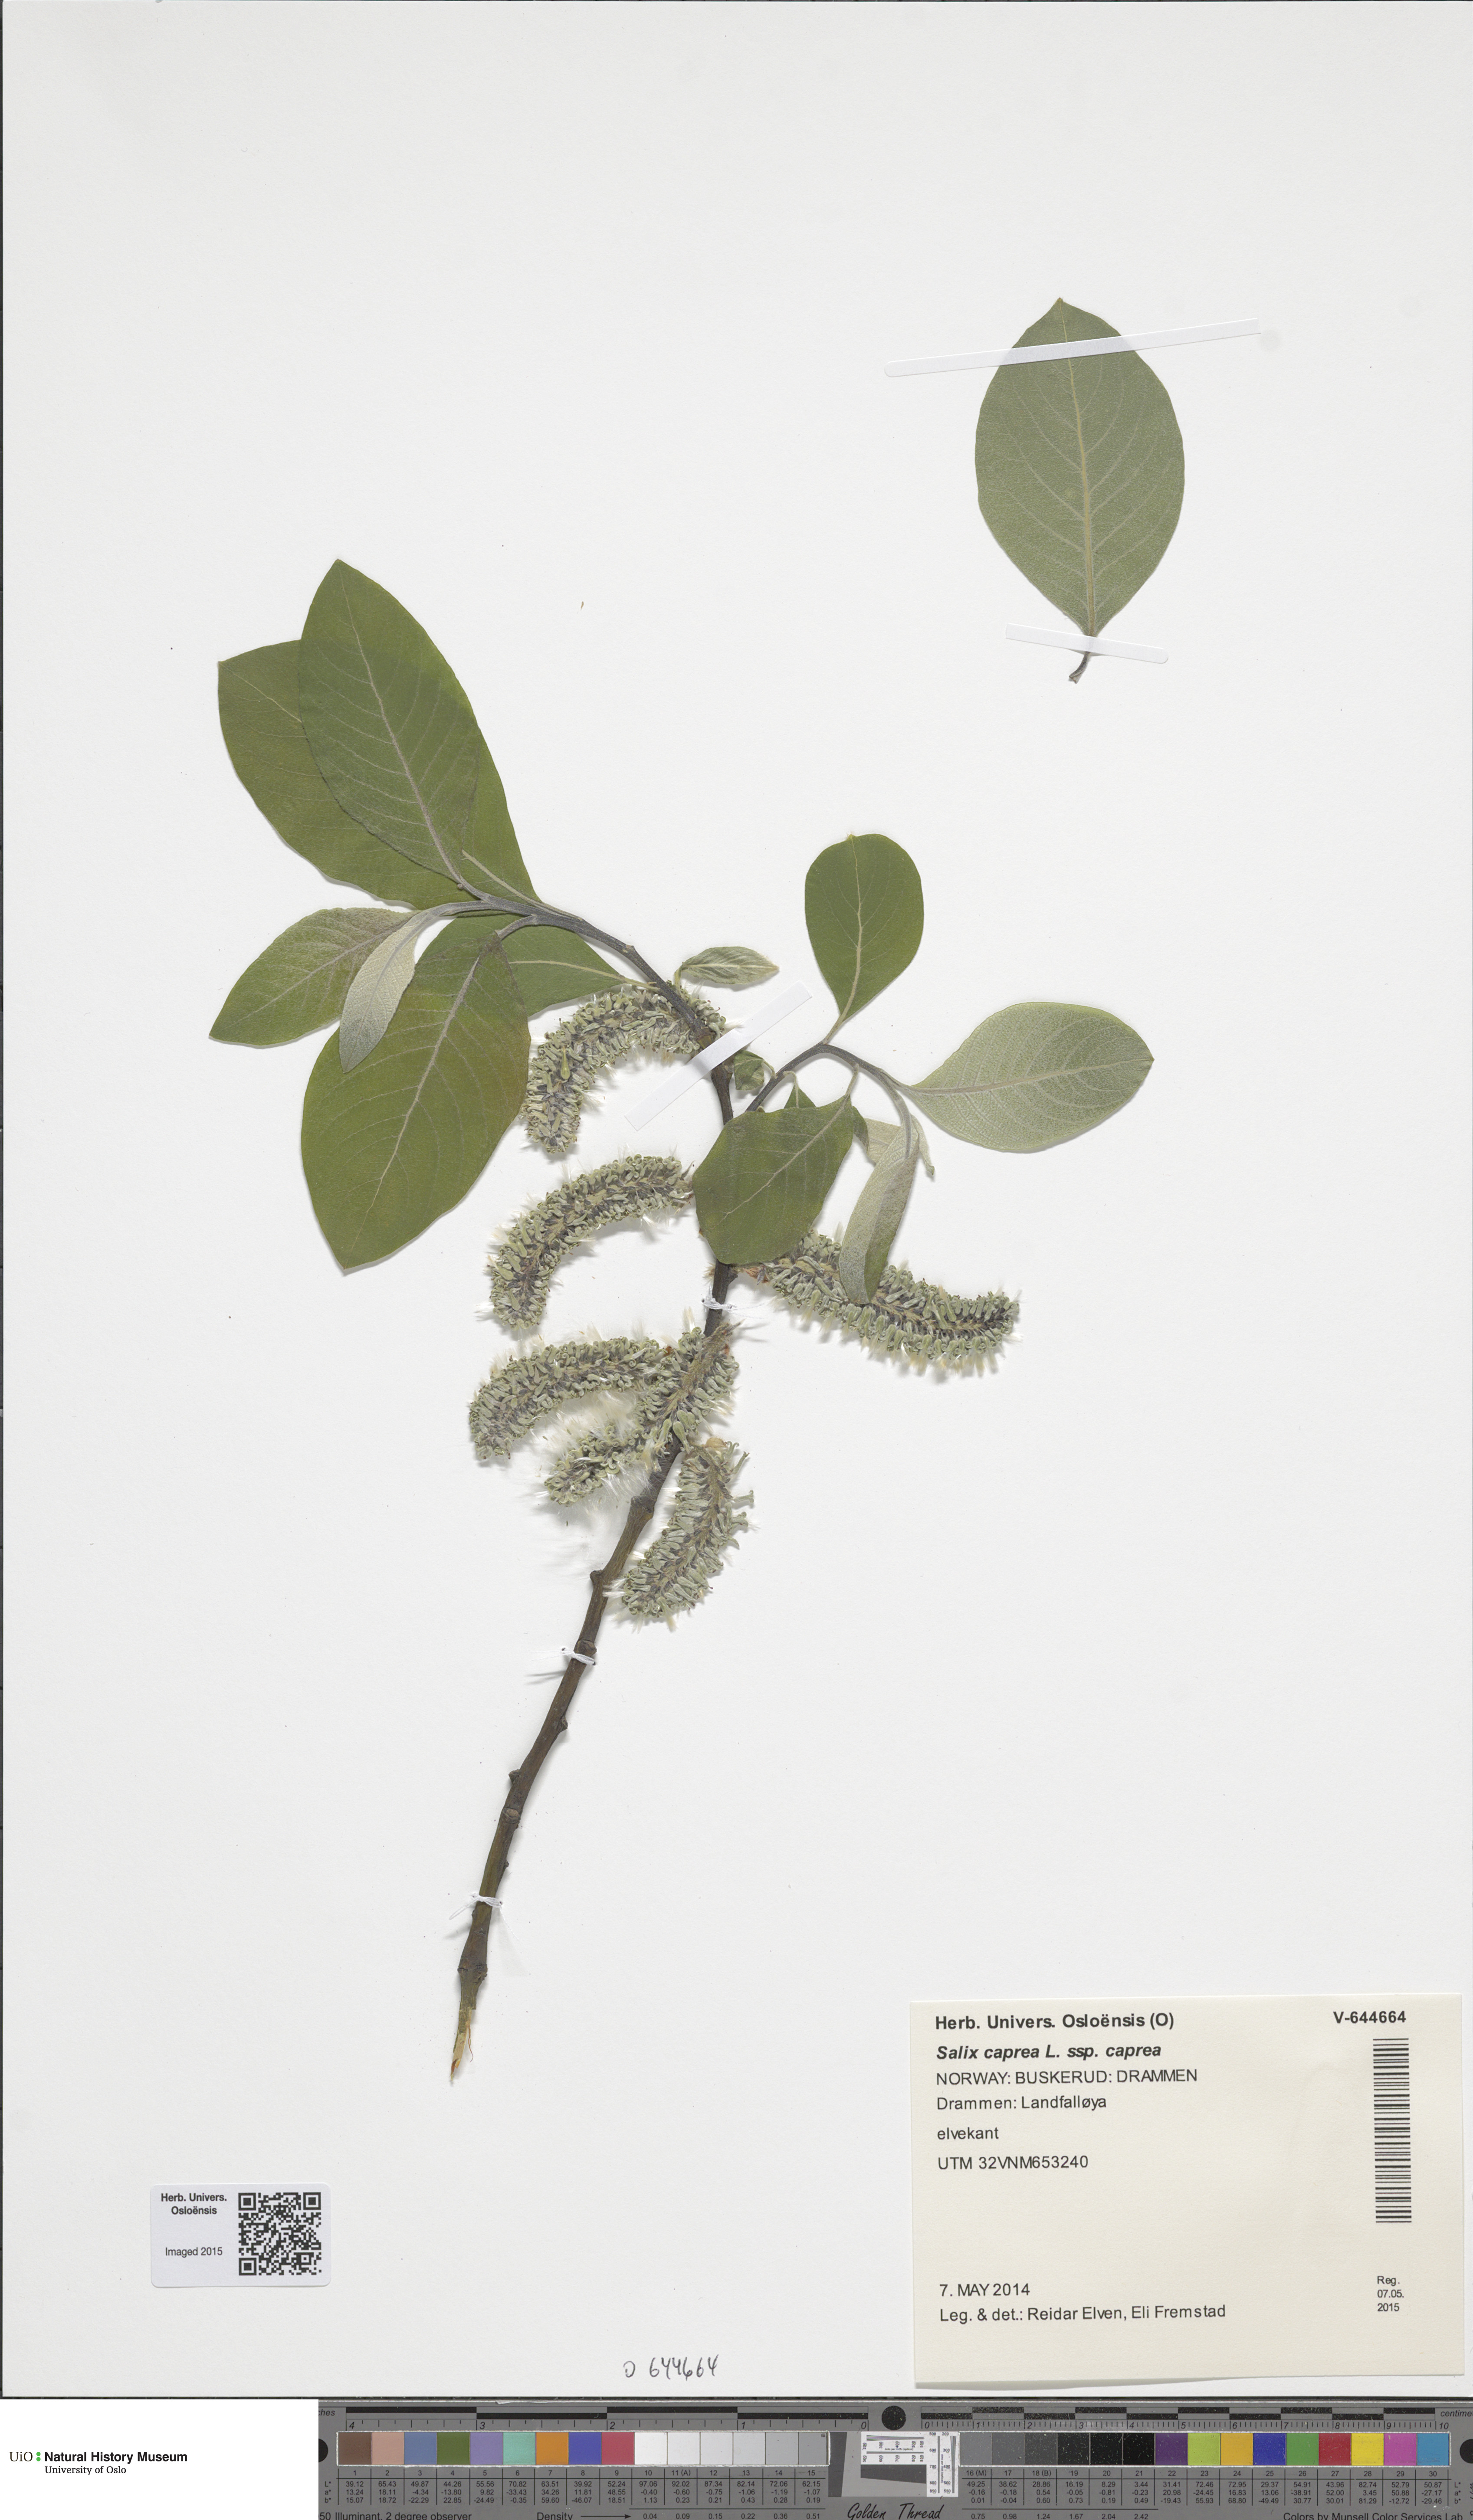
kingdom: Plantae
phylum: Tracheophyta
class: Magnoliopsida
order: Malpighiales
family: Salicaceae
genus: Salix
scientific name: Salix caprea
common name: Goat willow
